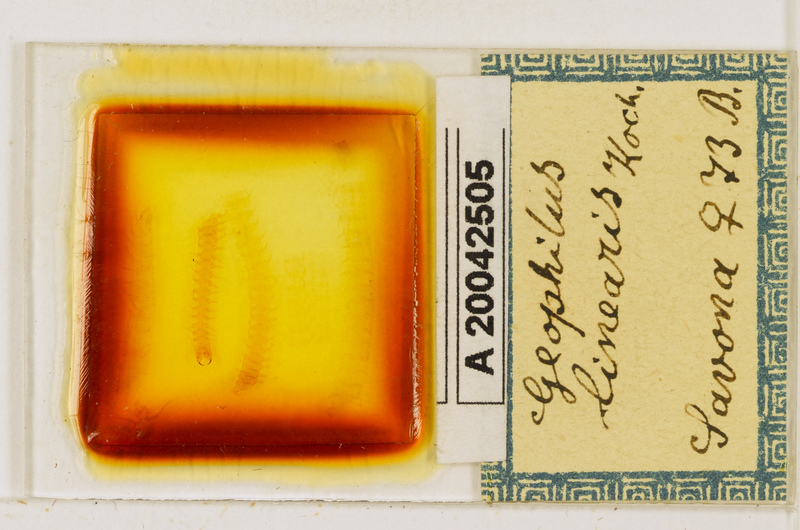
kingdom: Animalia
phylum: Arthropoda
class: Chilopoda
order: Geophilomorpha
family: Geophilidae
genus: Stenotaenia
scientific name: Stenotaenia linearis
